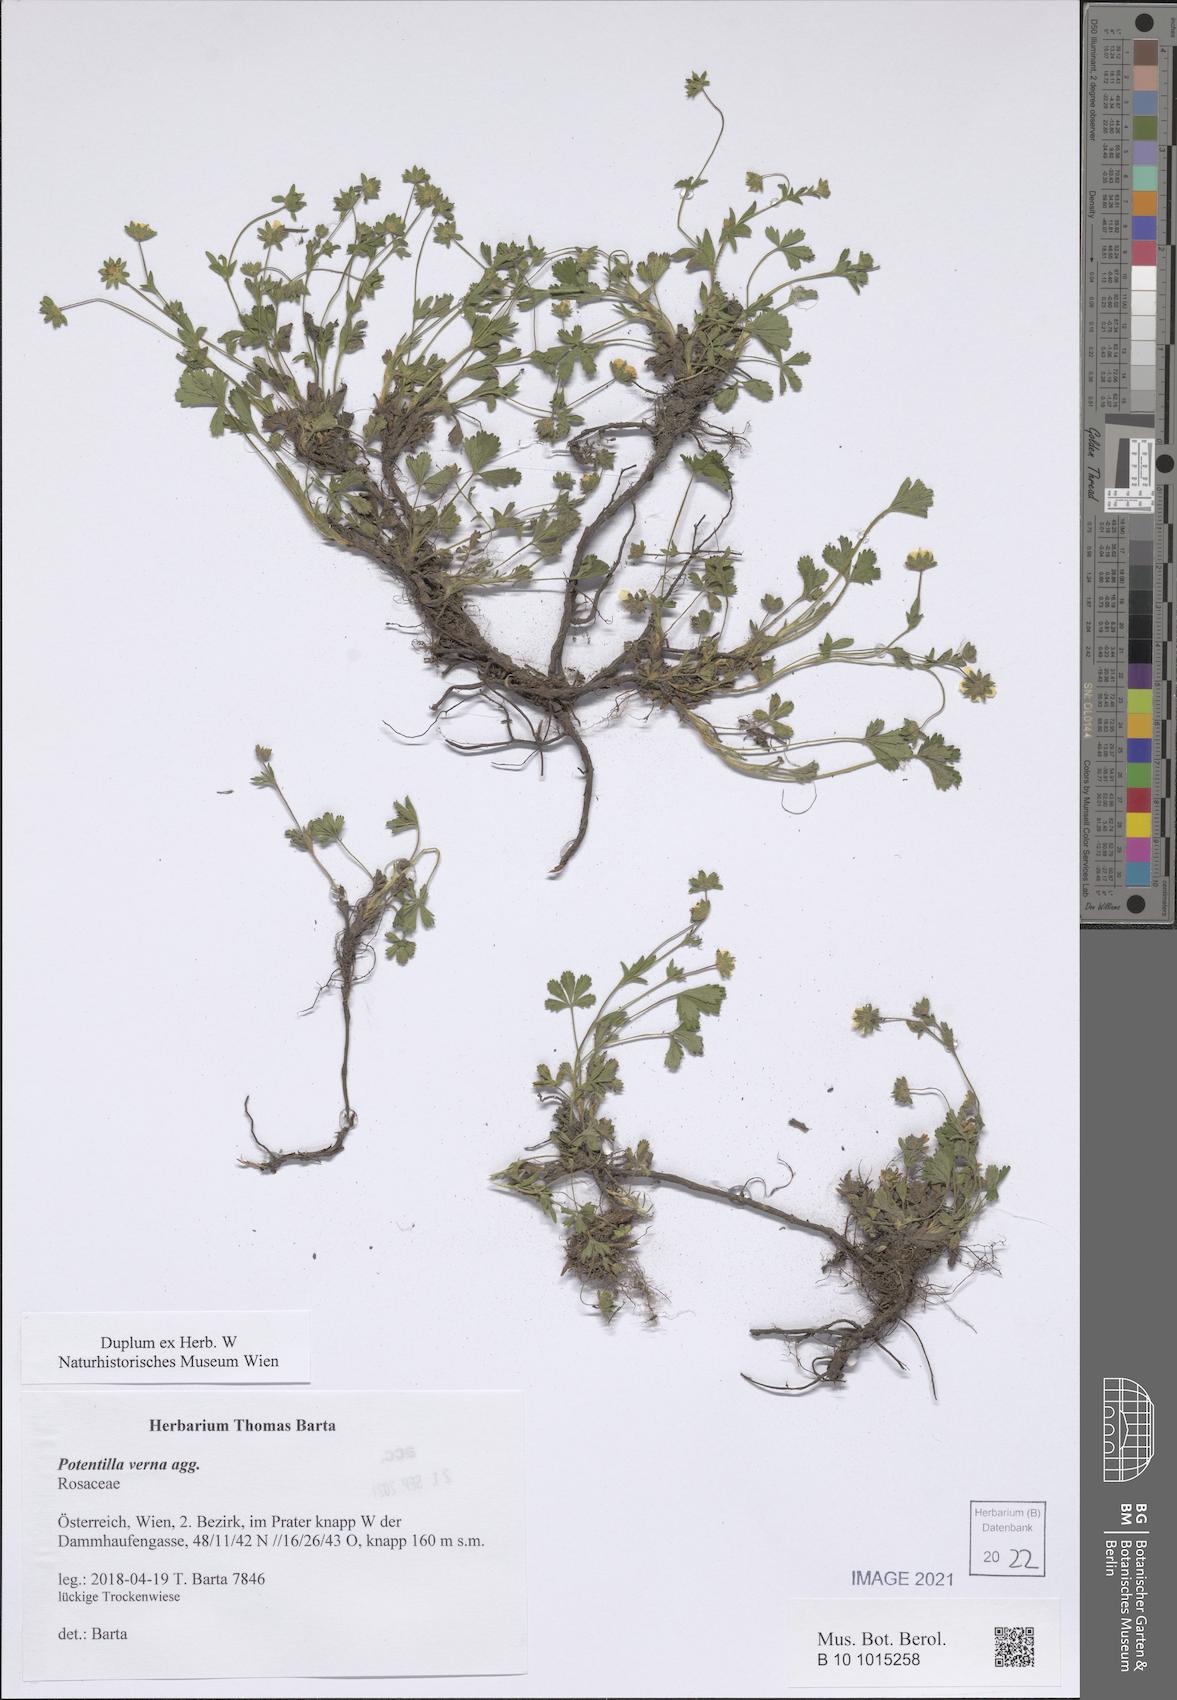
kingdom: Plantae
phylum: Tracheophyta
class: Magnoliopsida
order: Rosales
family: Rosaceae
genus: Potentilla
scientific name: Potentilla verna
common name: Spring cinquefoil
